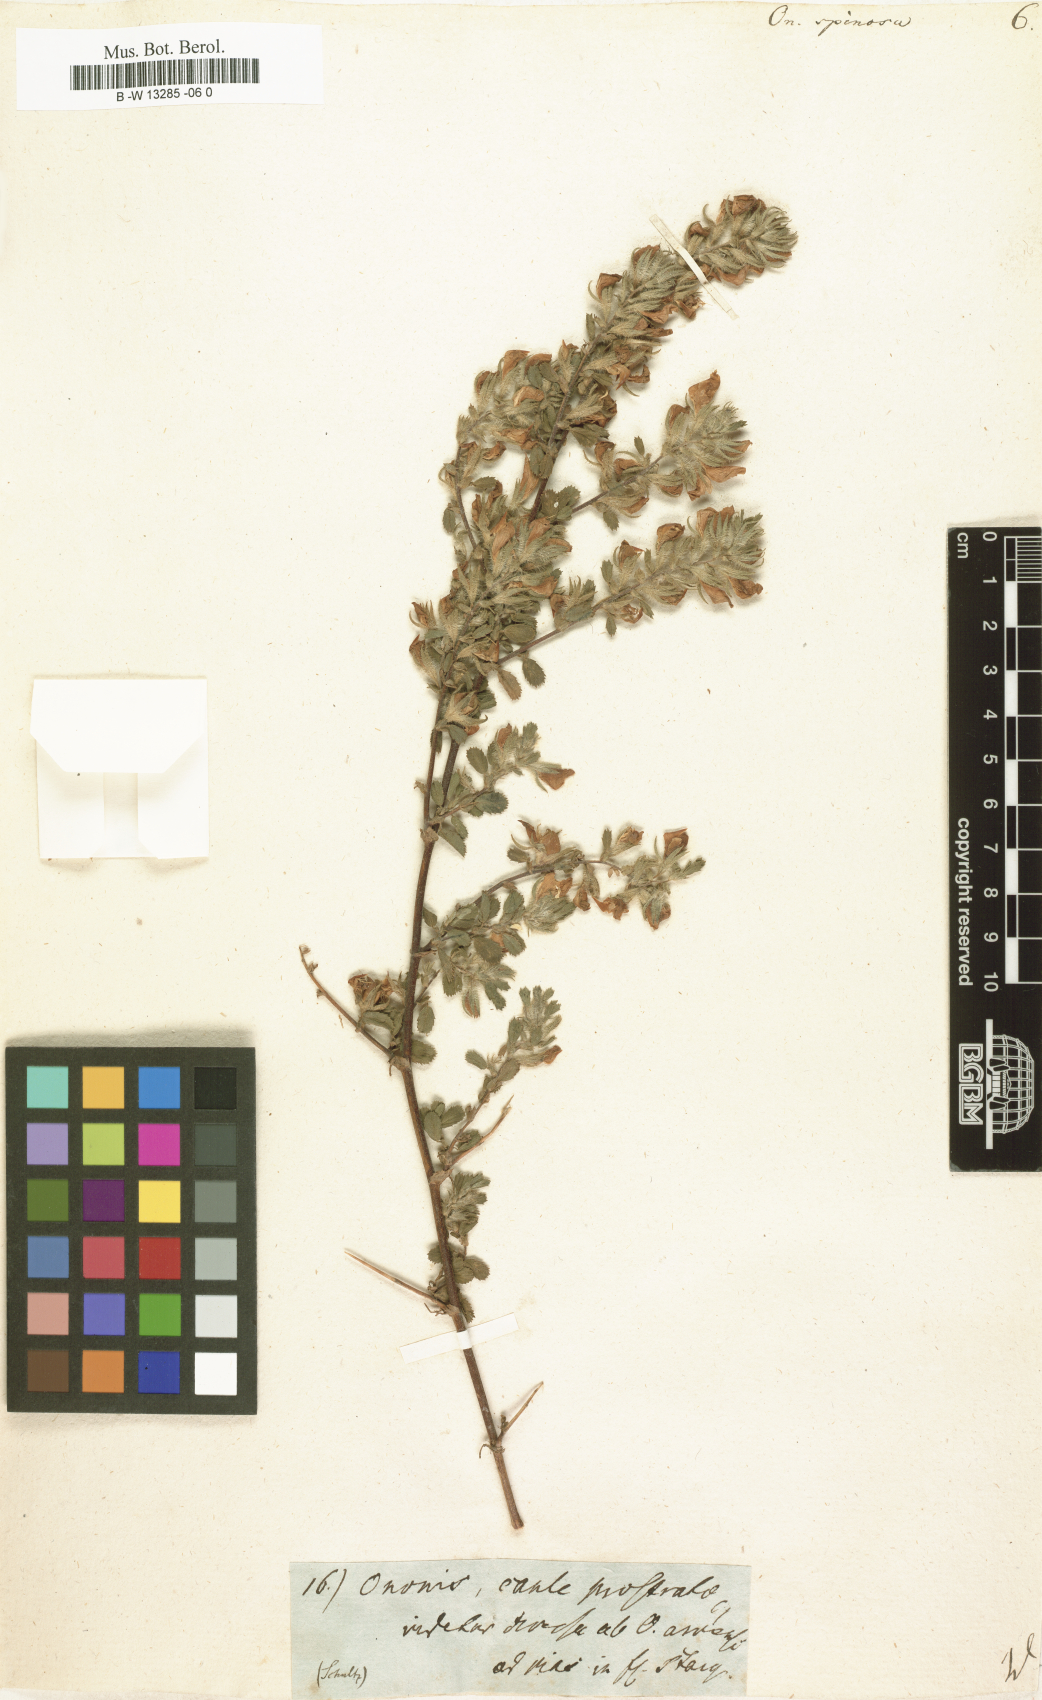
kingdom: Plantae
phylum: Tracheophyta
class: Magnoliopsida
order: Fabales
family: Fabaceae
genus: Ononis
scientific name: Ononis spinosa
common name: Spiny restharrow
